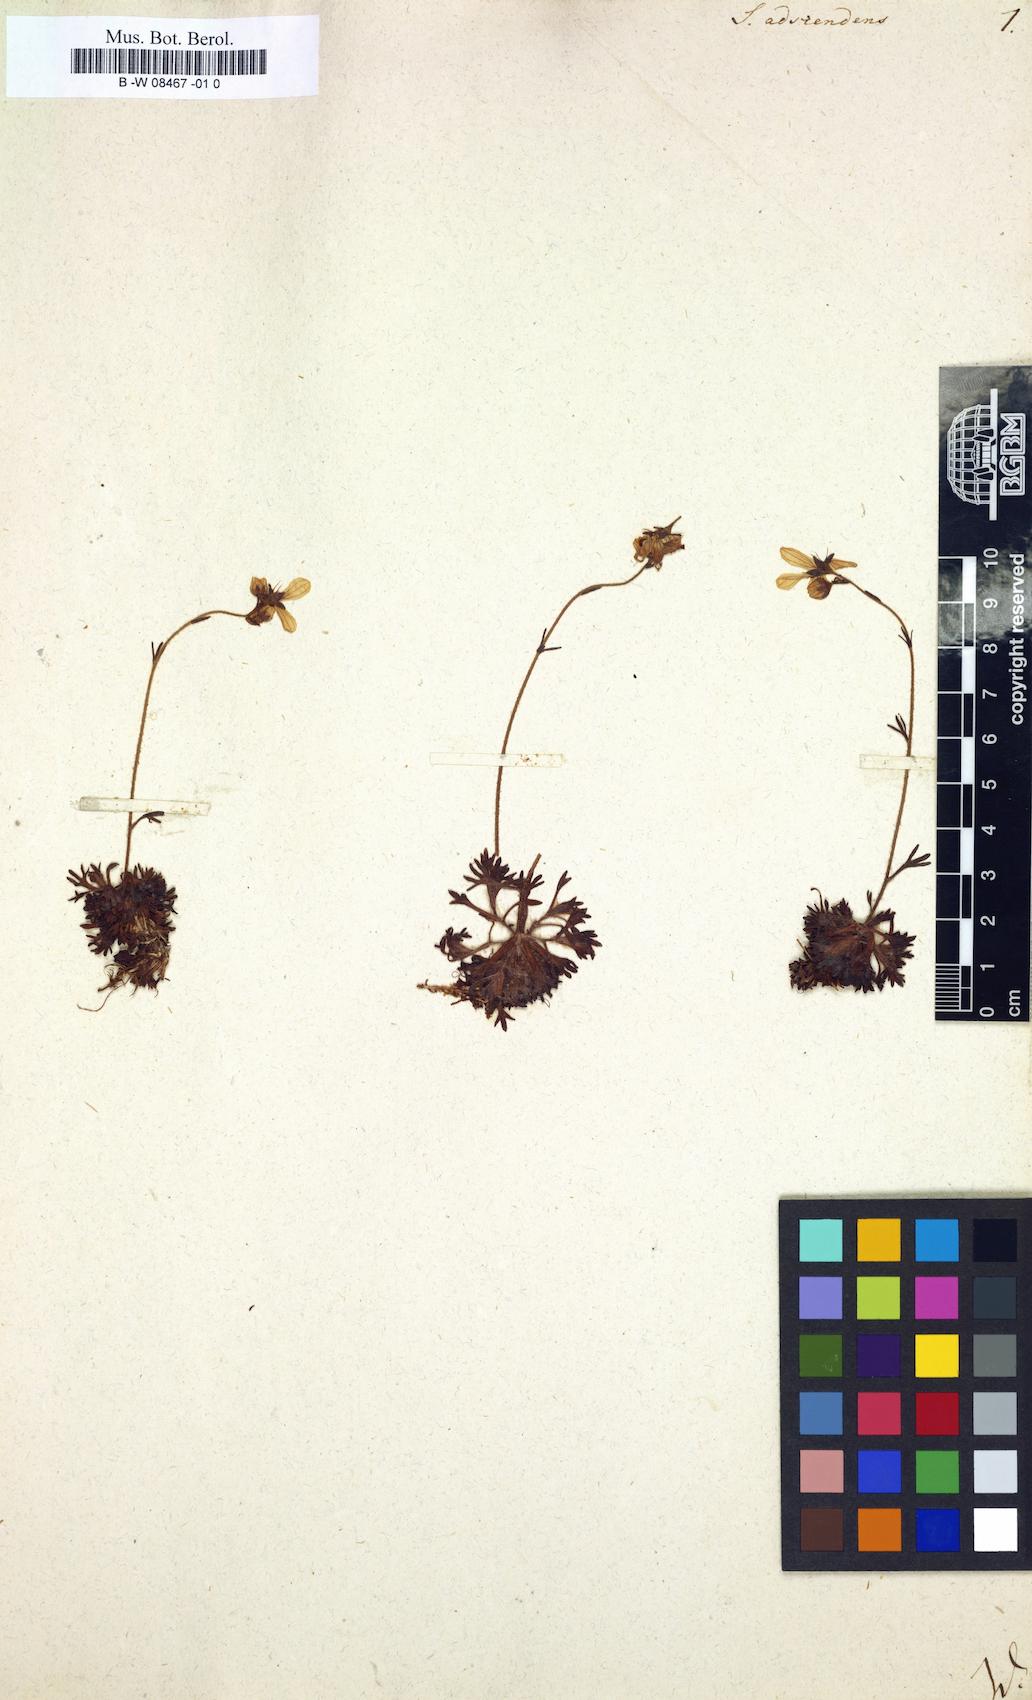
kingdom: Plantae
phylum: Tracheophyta
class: Magnoliopsida
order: Saxifragales
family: Saxifragaceae
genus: Saxifraga
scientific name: Saxifraga adscendens
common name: Ascending saxifrage
